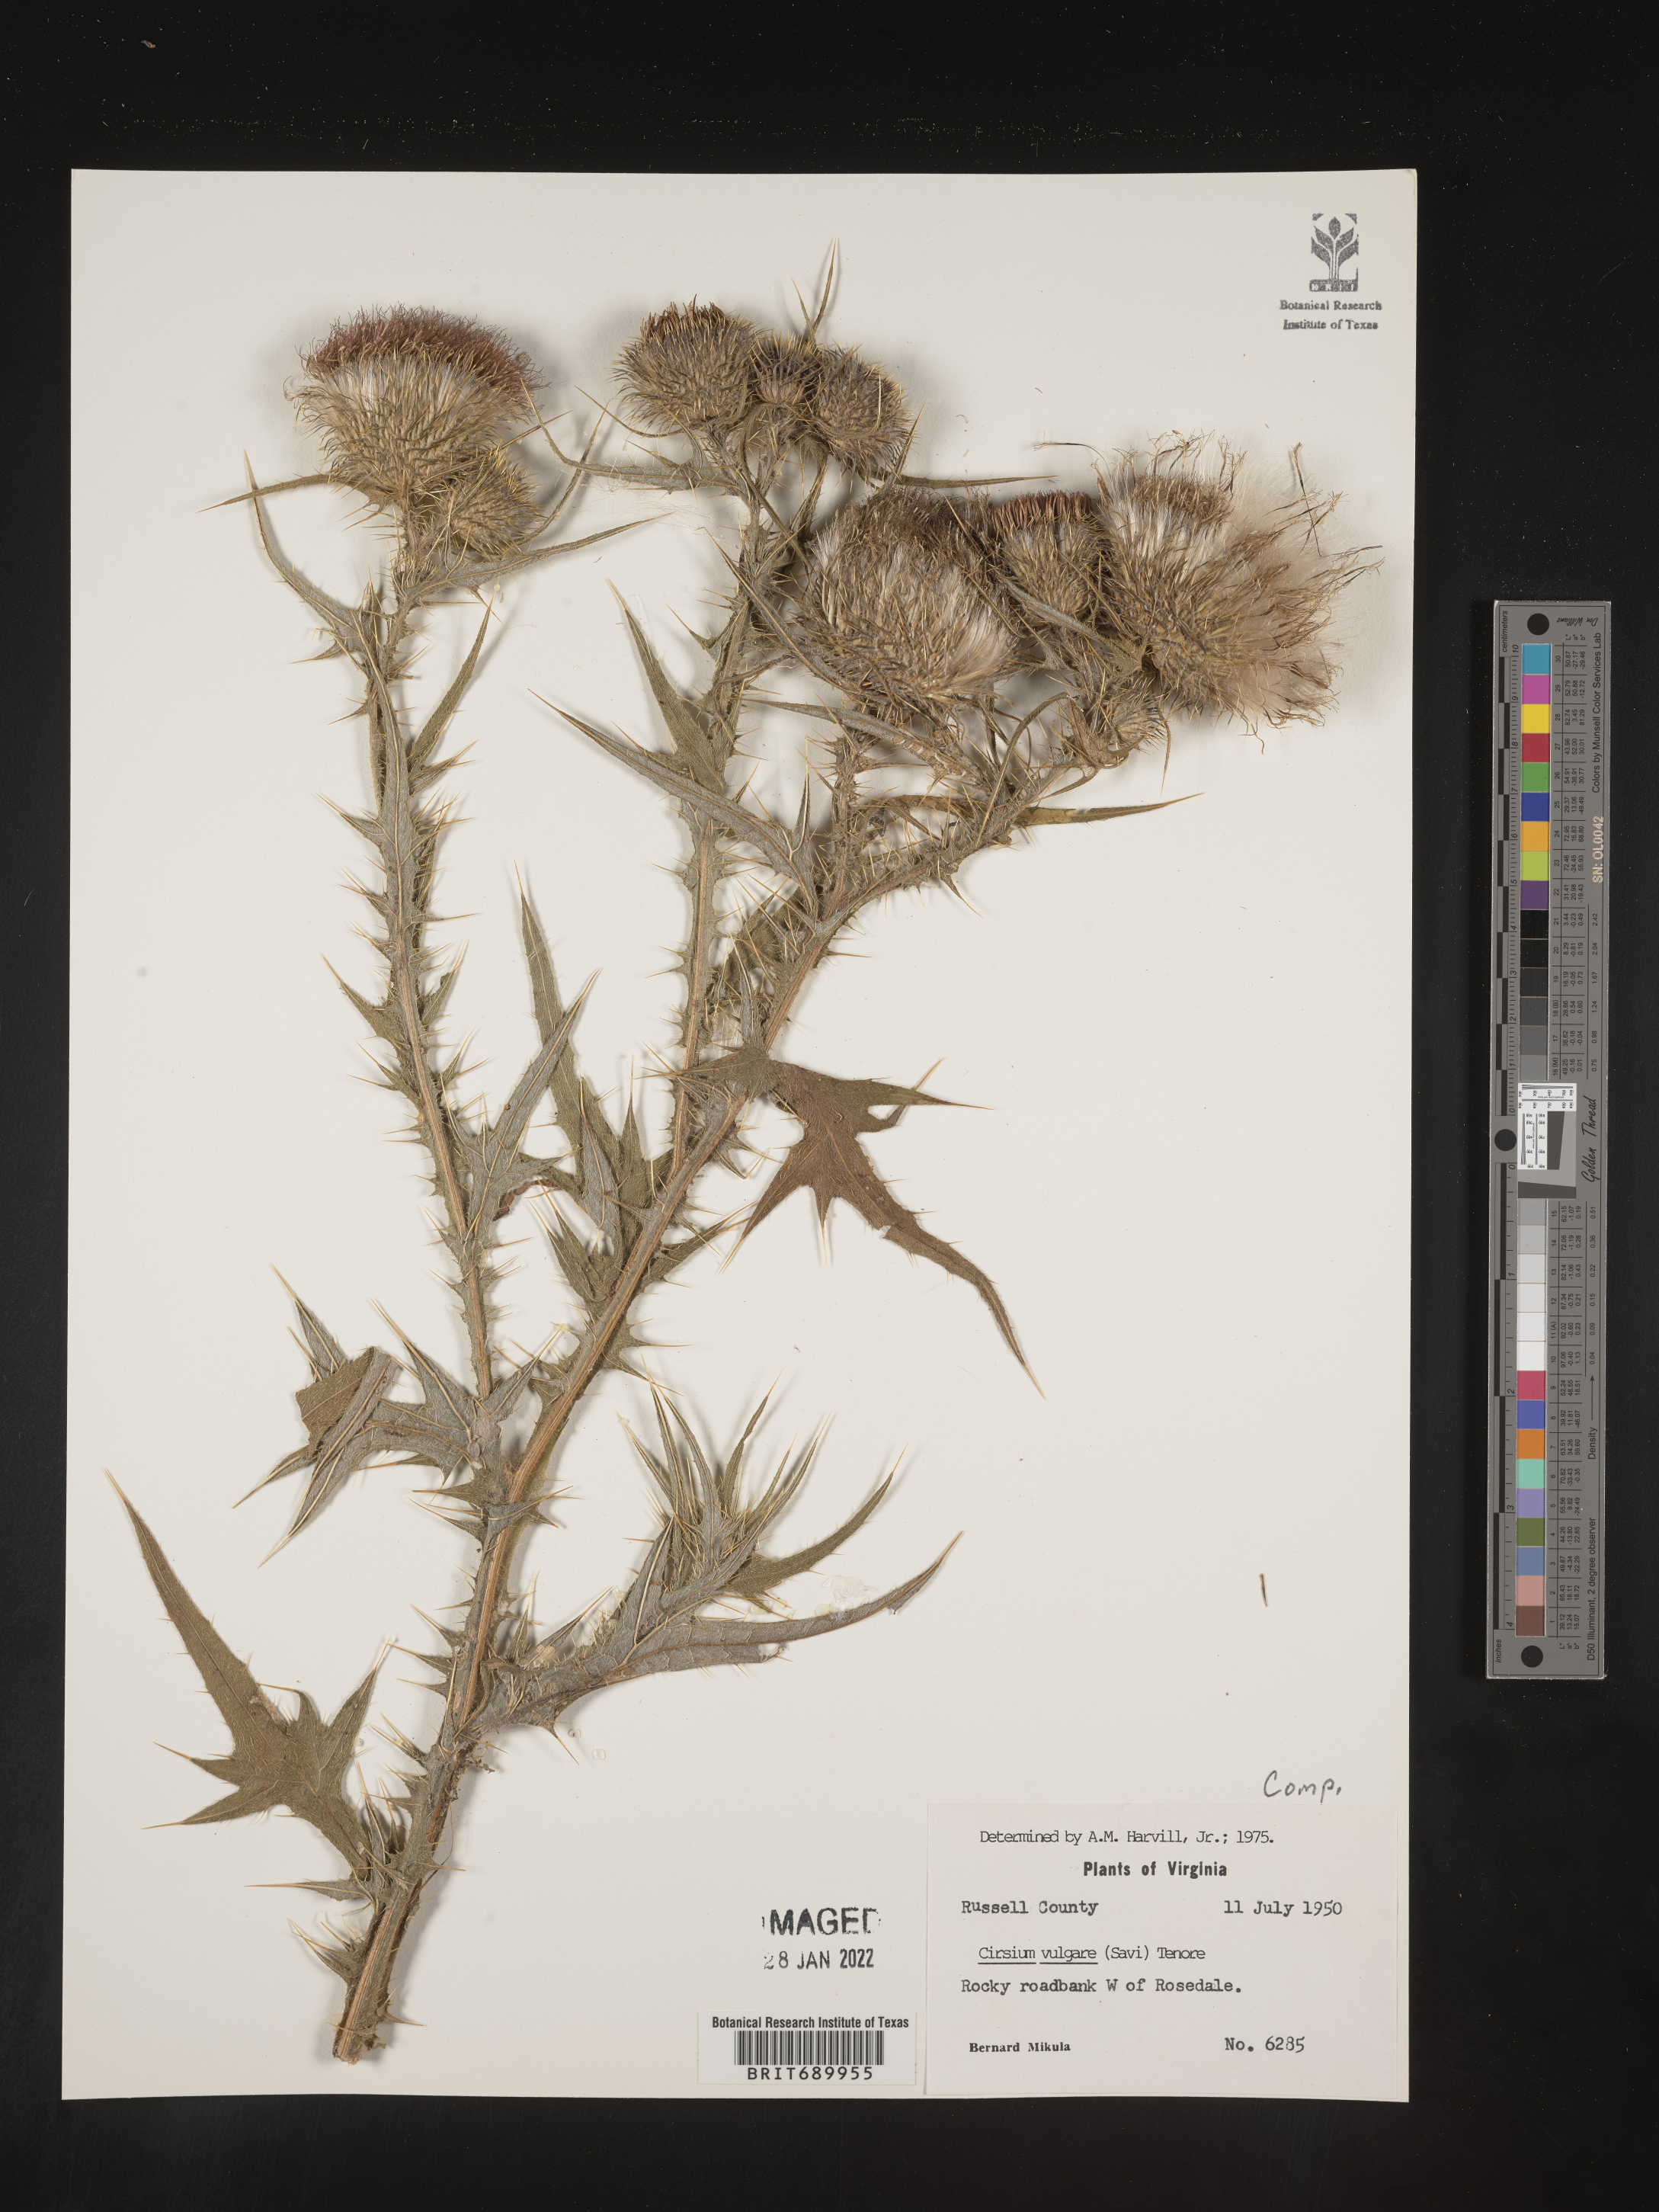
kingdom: Plantae
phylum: Tracheophyta
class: Magnoliopsida
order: Asterales
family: Asteraceae
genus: Cirsium
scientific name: Cirsium vulgare
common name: Bull thistle
